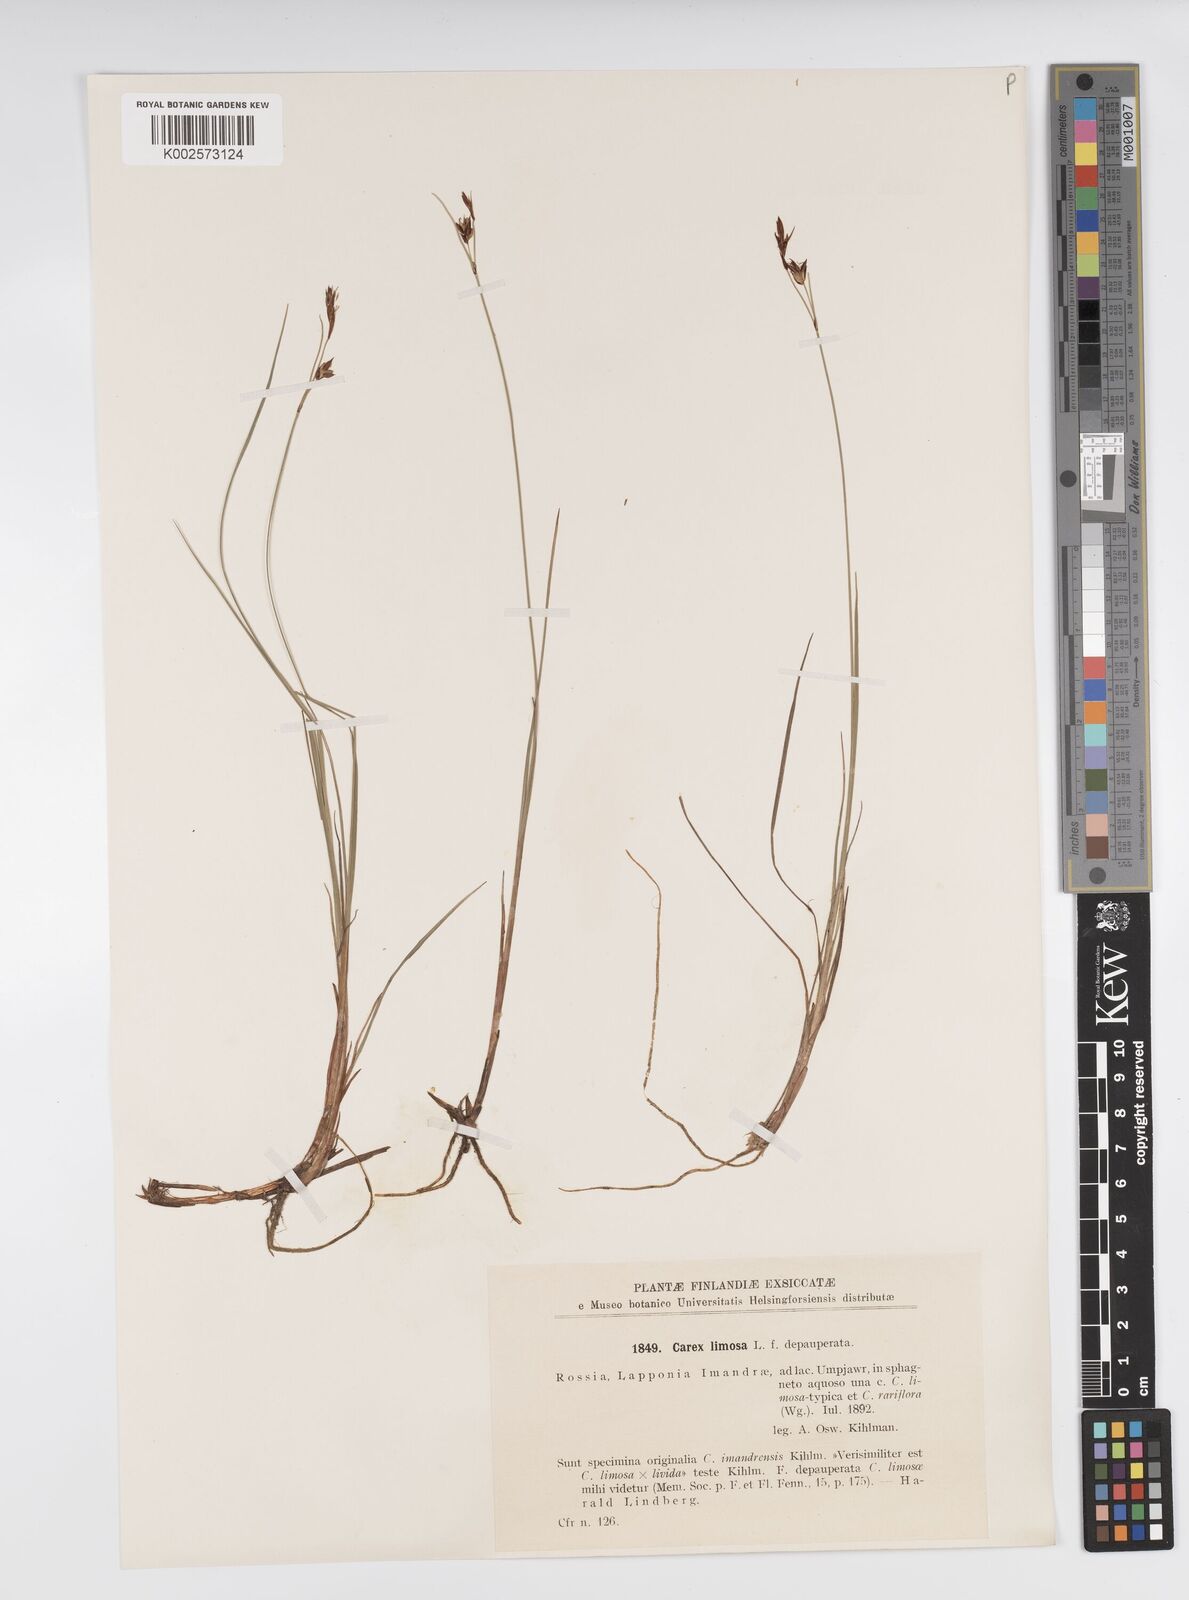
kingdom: Plantae
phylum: Tracheophyta
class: Liliopsida
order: Poales
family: Cyperaceae
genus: Carex
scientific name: Carex limosa
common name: Bog sedge
